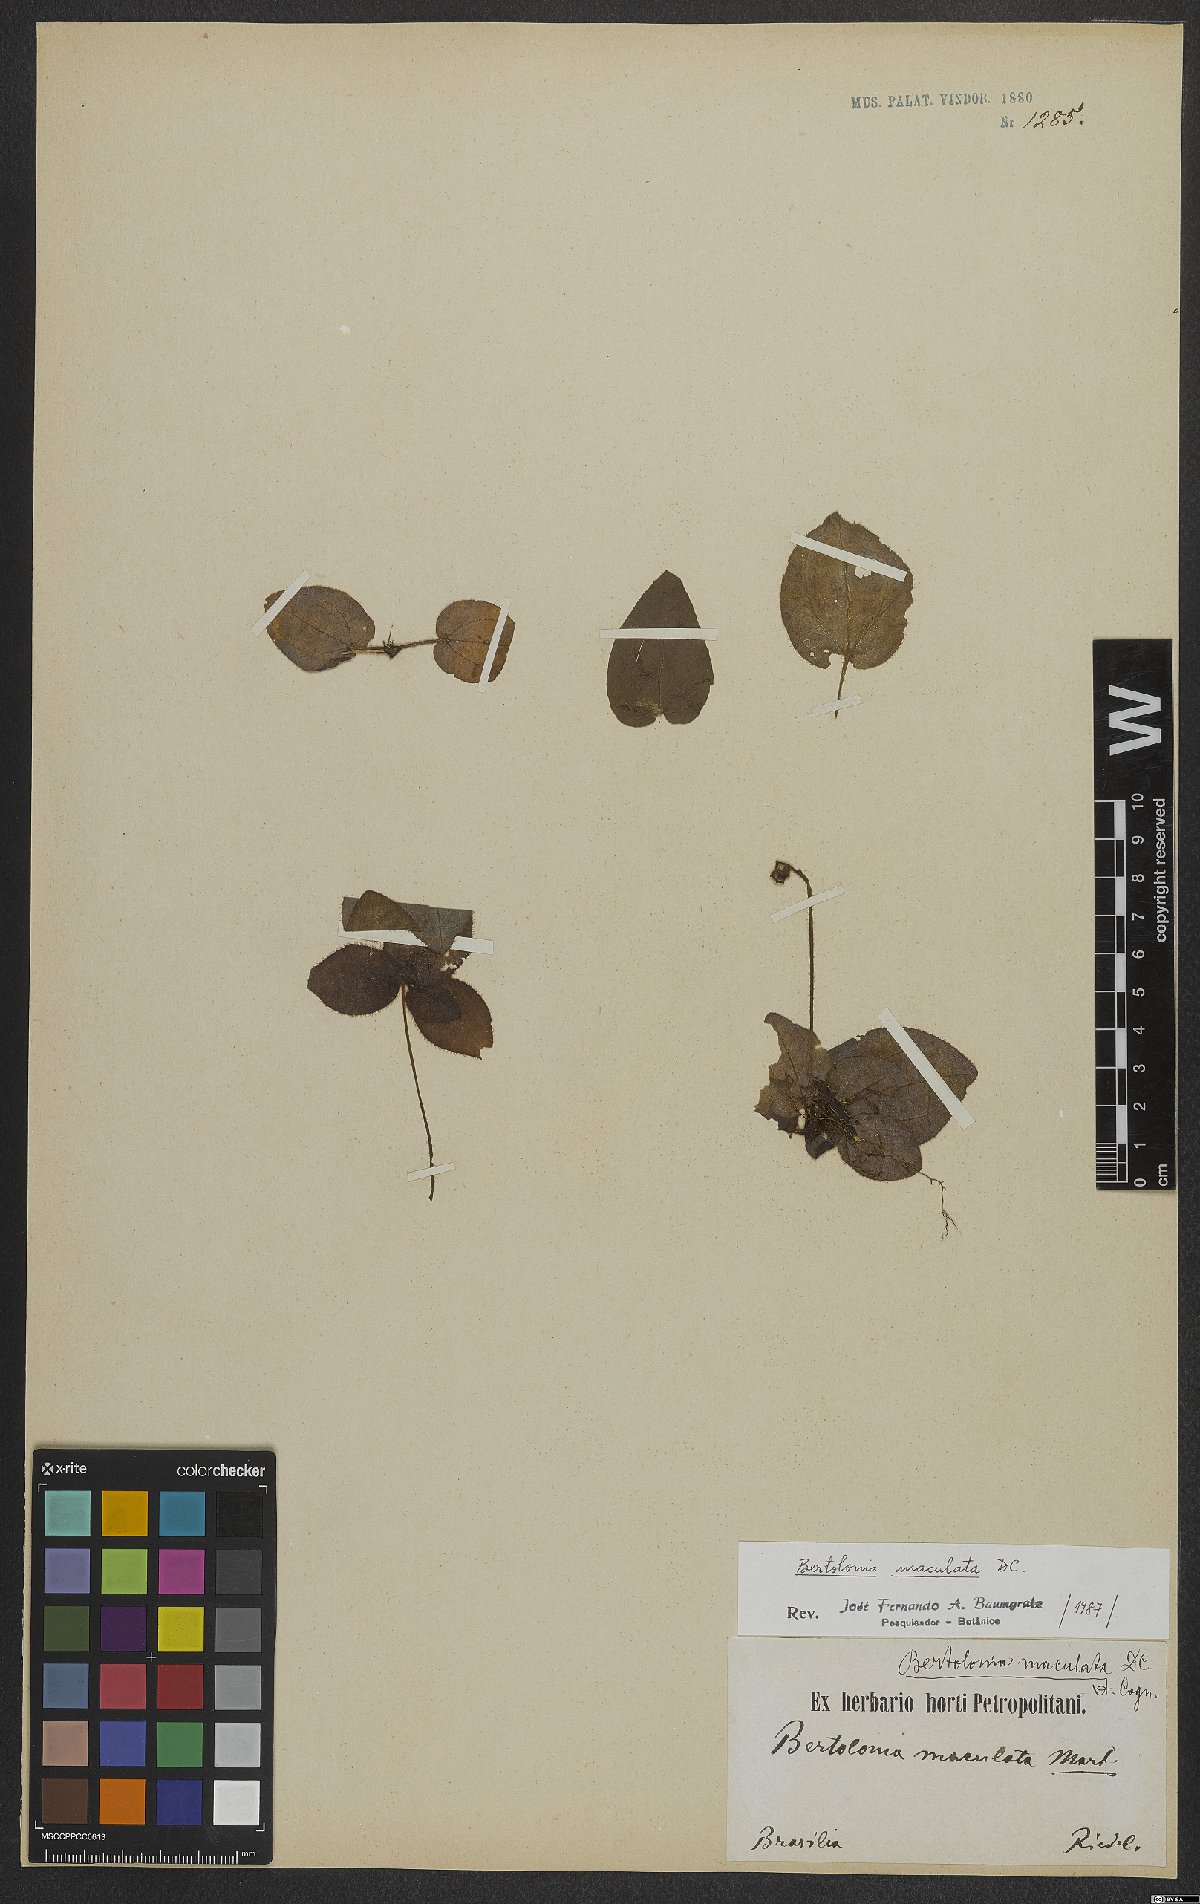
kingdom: Plantae
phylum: Tracheophyta
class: Magnoliopsida
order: Myrtales
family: Melastomataceae
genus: Bertolonia
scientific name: Bertolonia maculata
